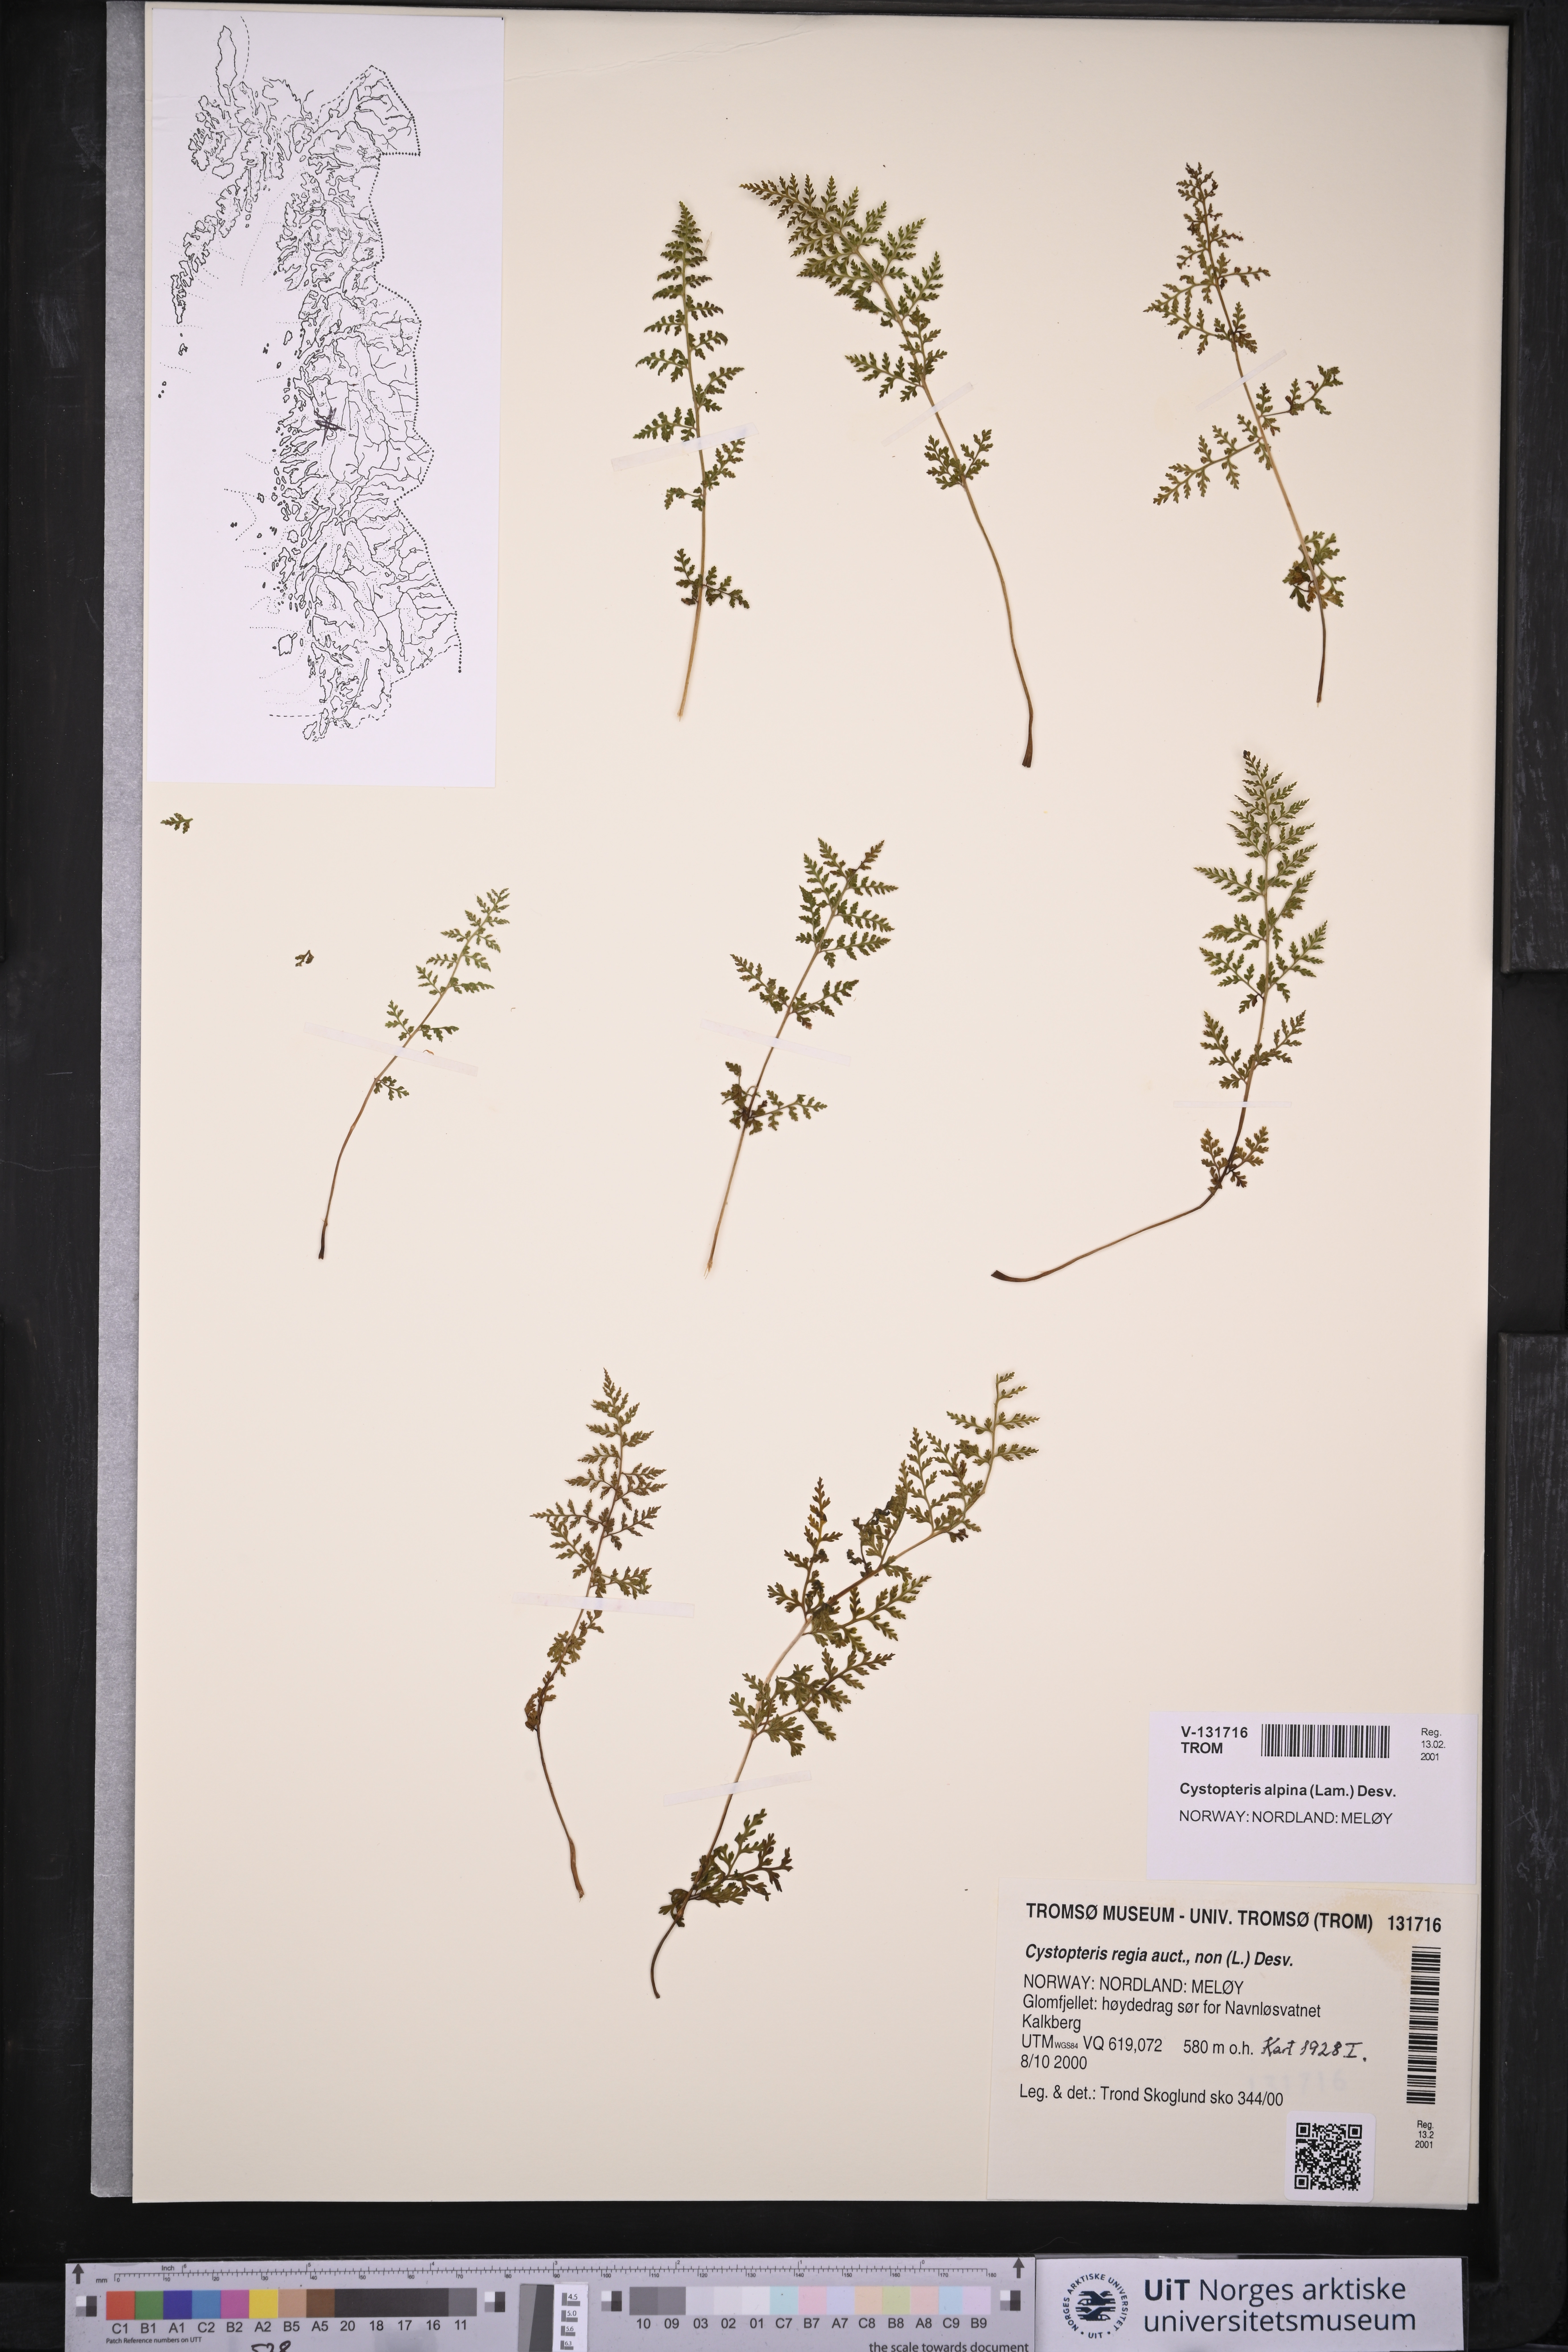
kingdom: Plantae
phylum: Tracheophyta
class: Polypodiopsida
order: Polypodiales
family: Cystopteridaceae
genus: Cystopteris
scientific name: Cystopteris alpina
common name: Alpine bladder-fern
